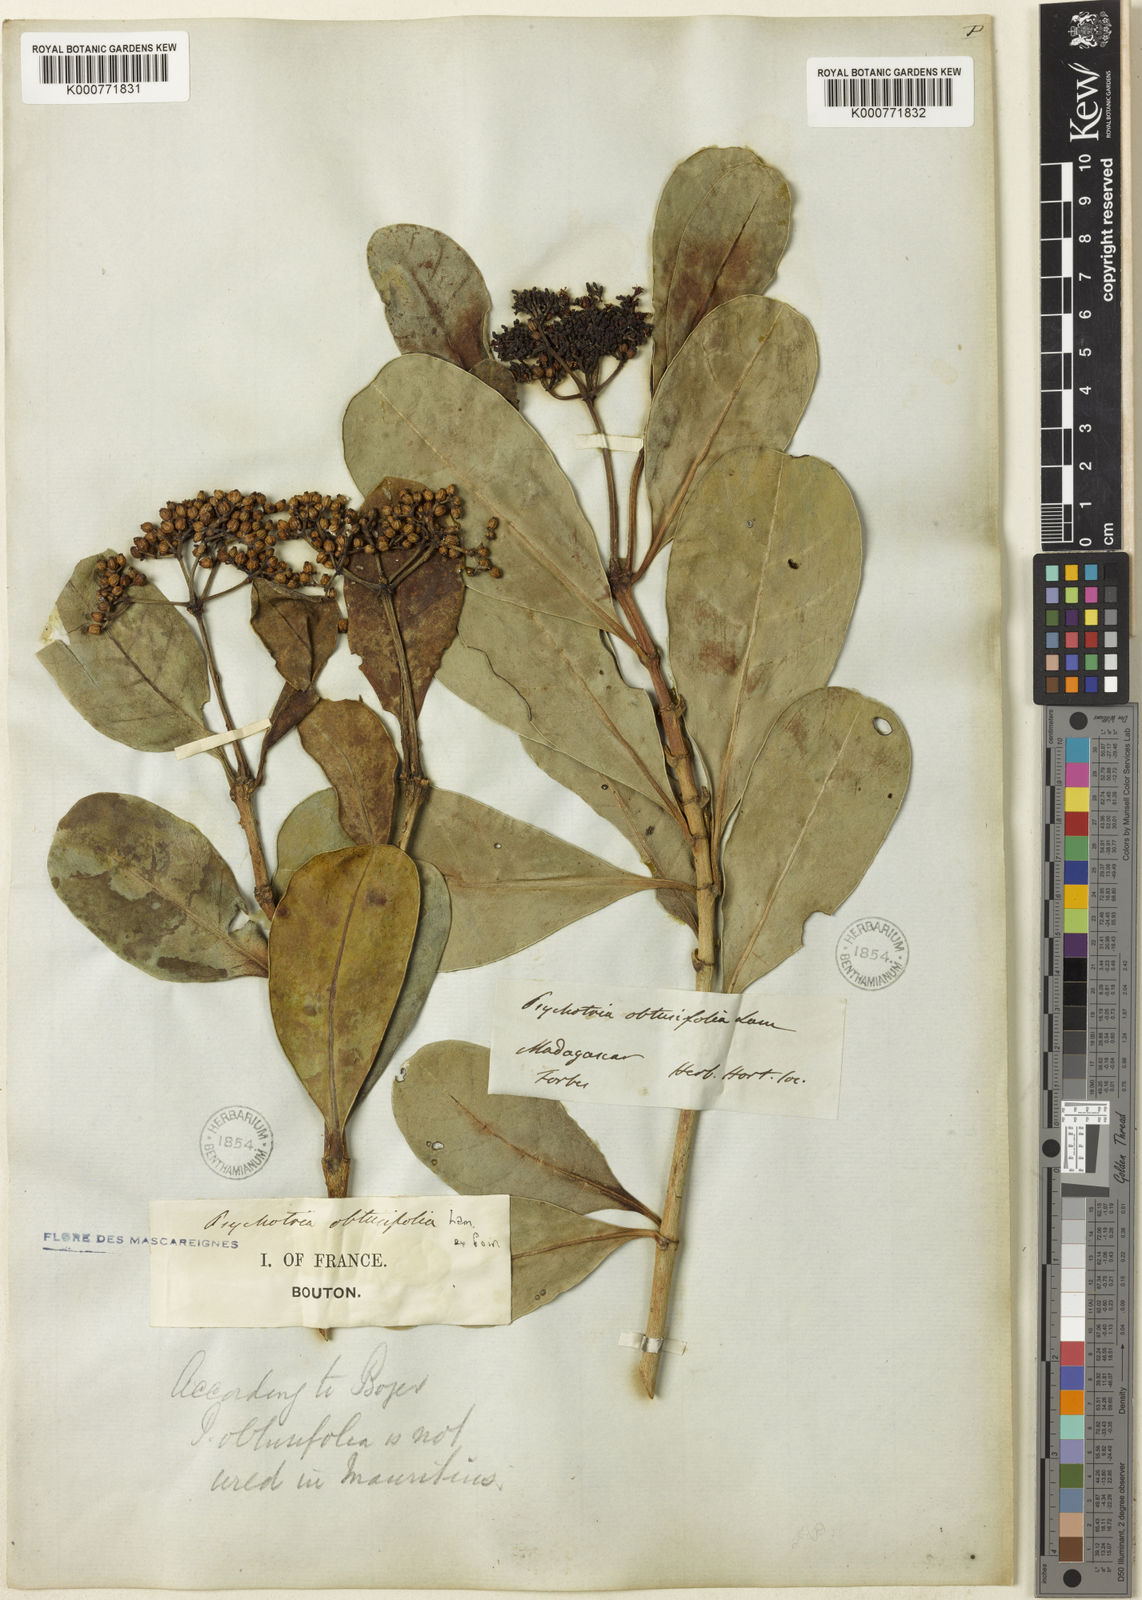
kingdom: Plantae
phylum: Tracheophyta
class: Magnoliopsida
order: Gentianales
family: Rubiaceae
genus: Psychotria
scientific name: Psychotria
